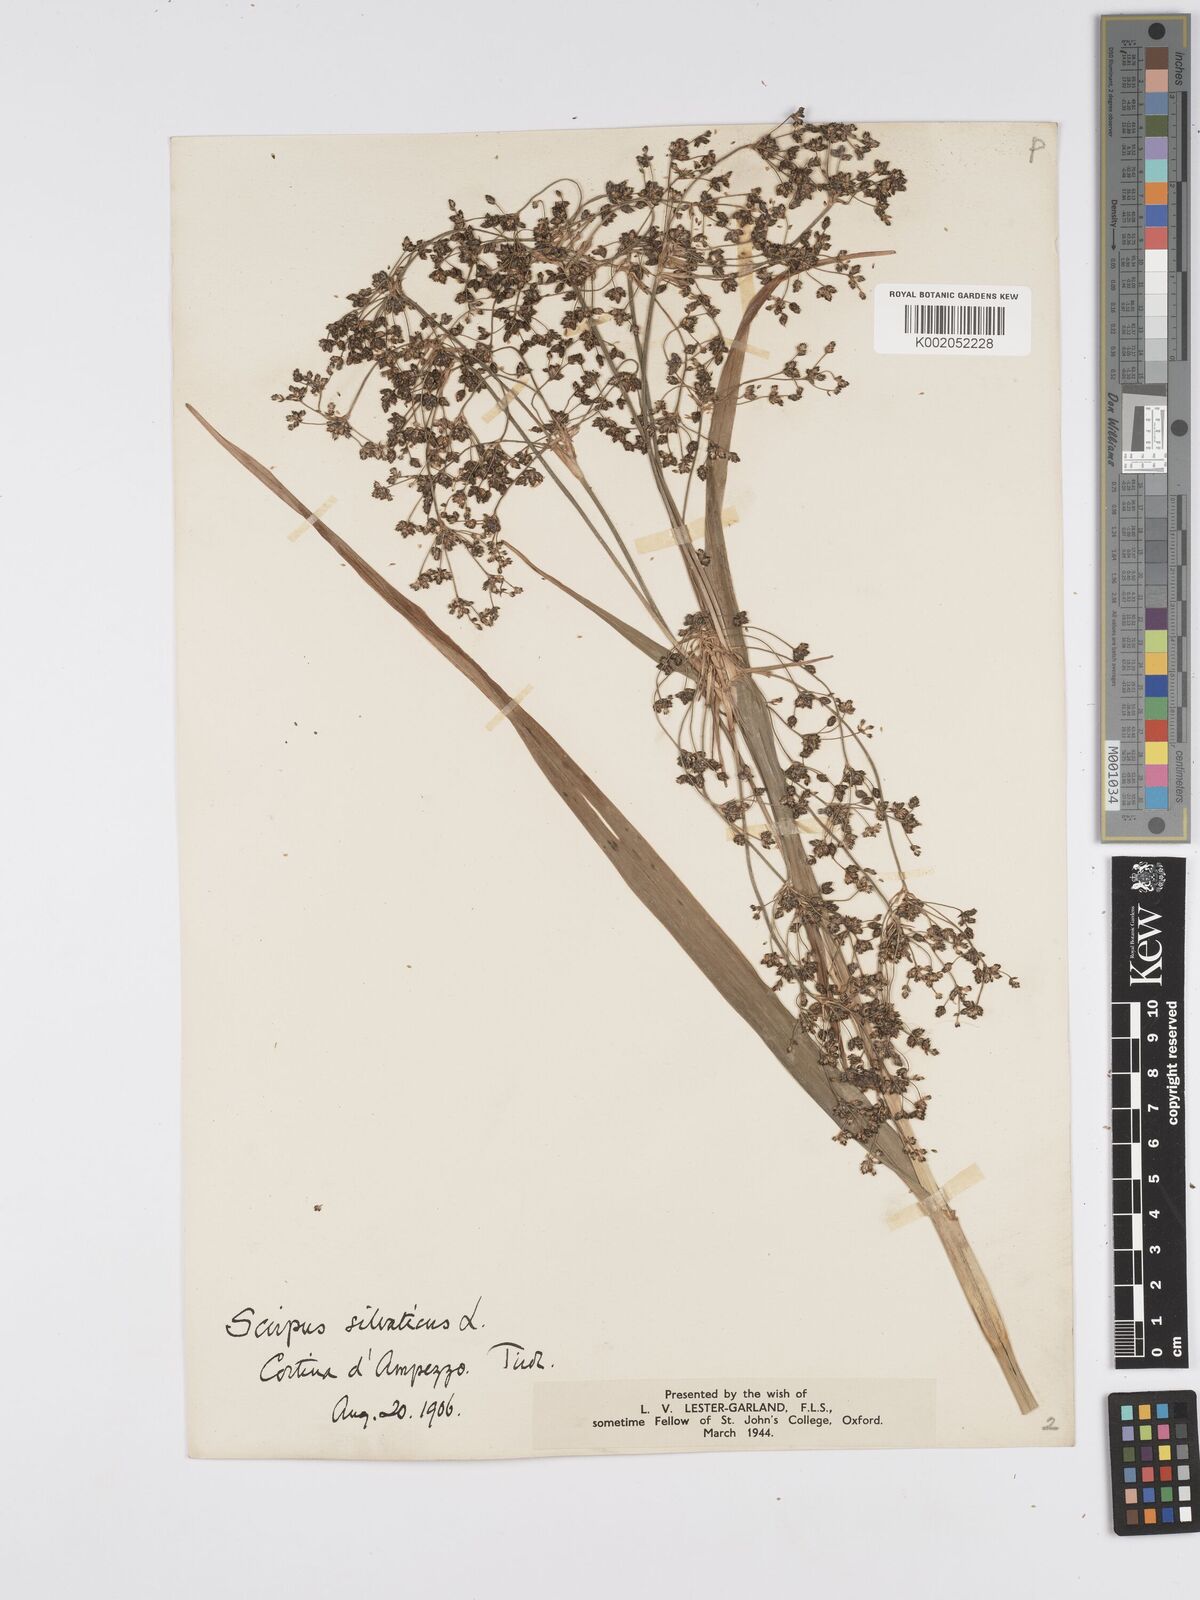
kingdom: Plantae
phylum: Tracheophyta
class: Liliopsida
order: Poales
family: Cyperaceae
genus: Scirpus
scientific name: Scirpus sylvaticus
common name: Wood club-rush
